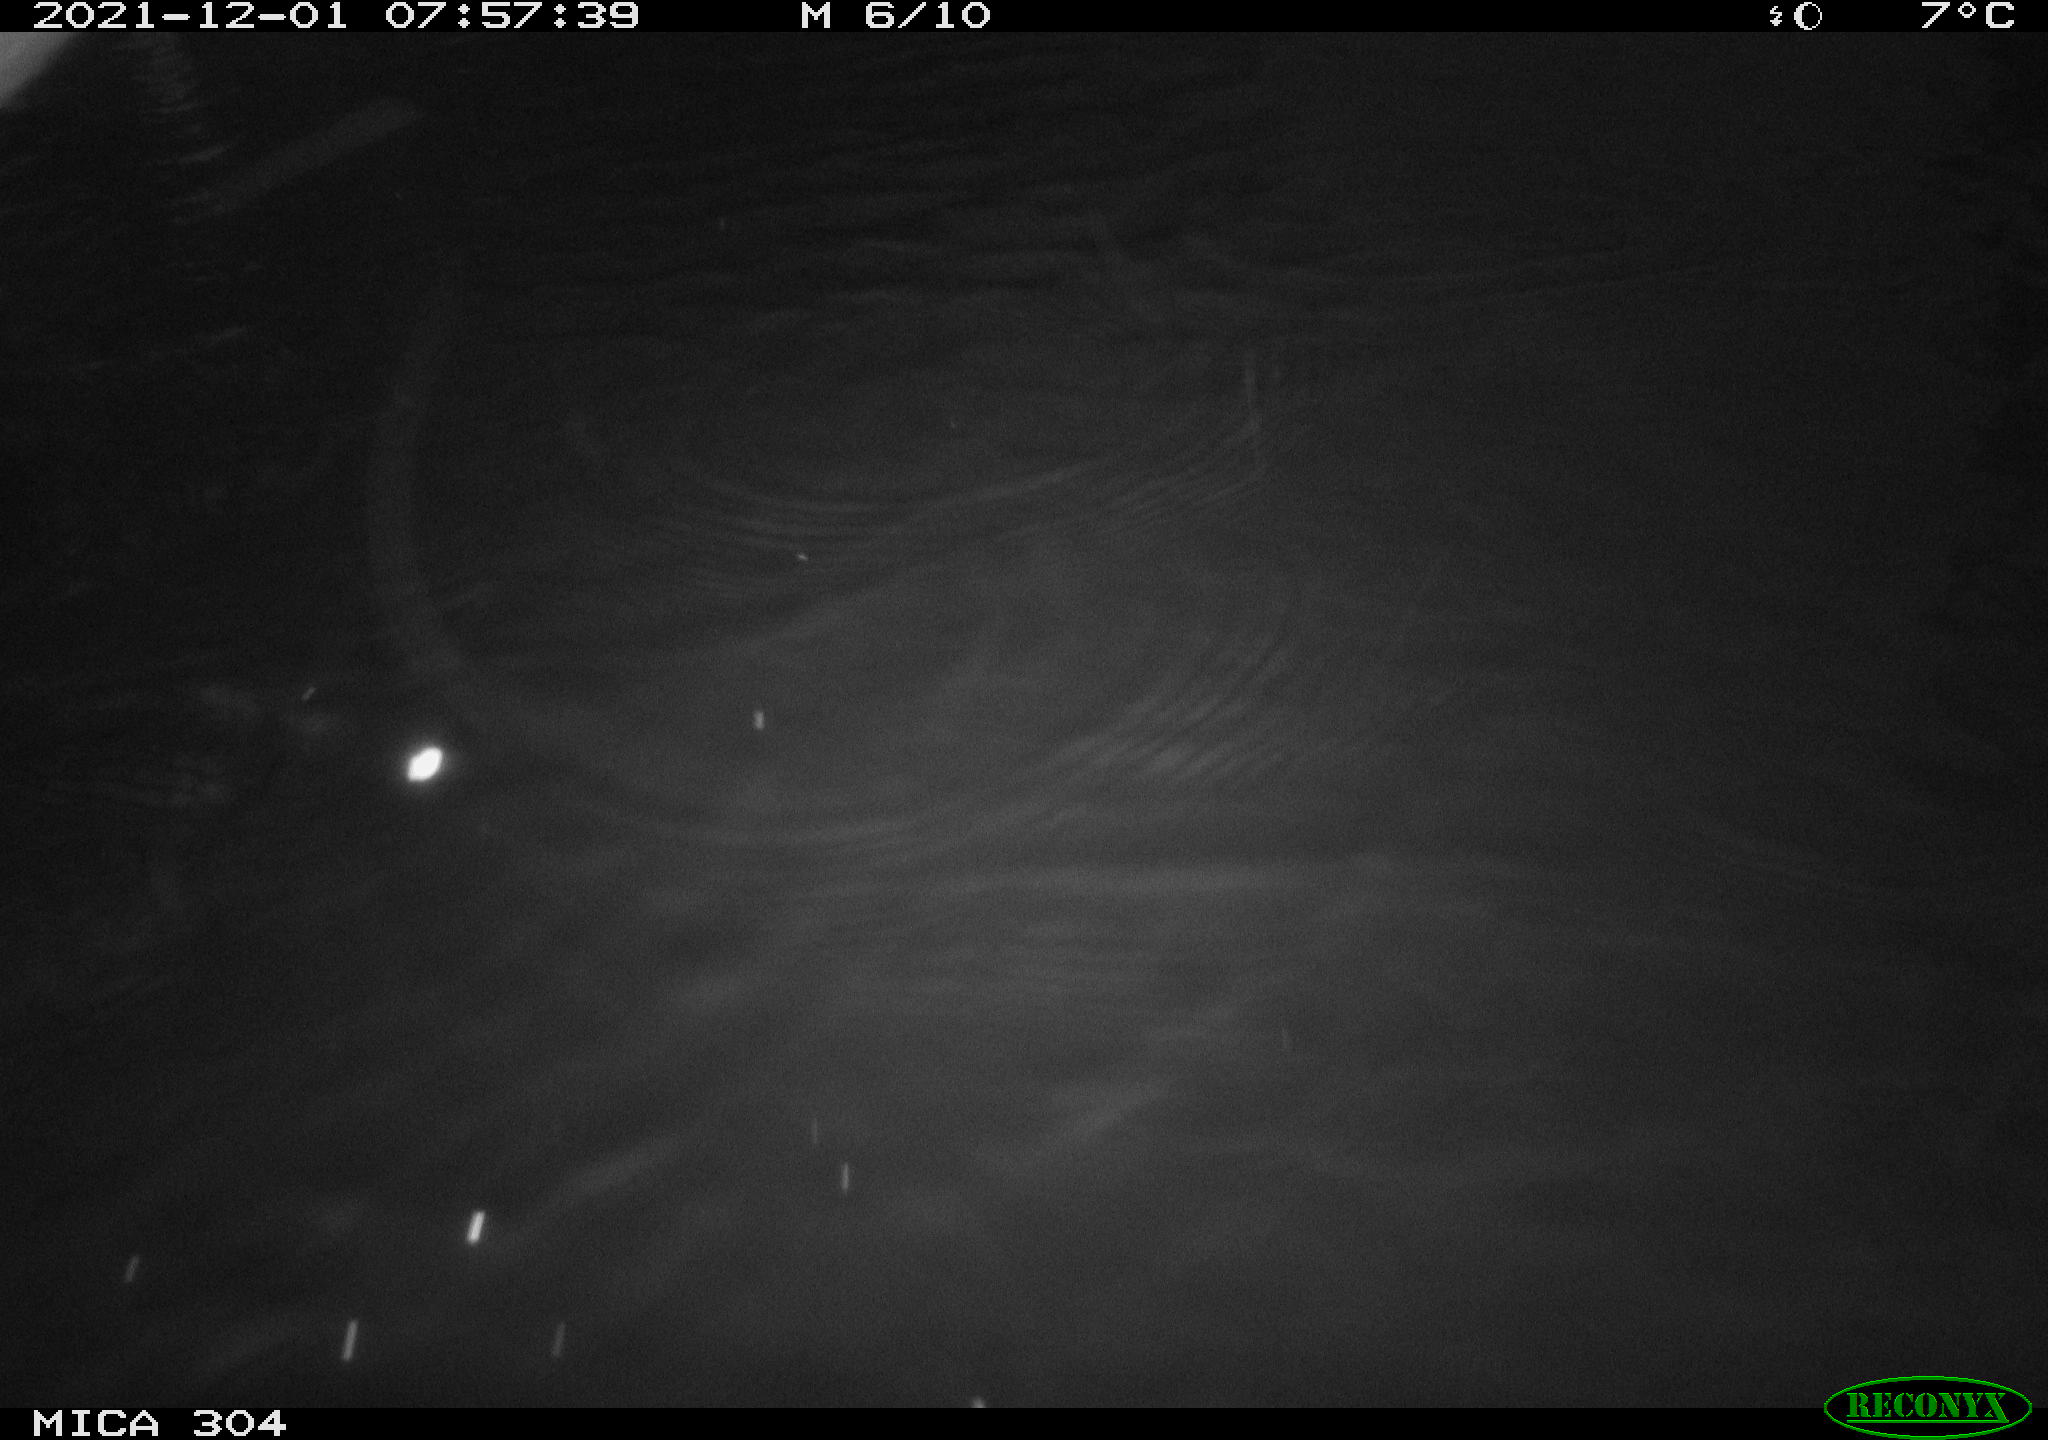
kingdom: Animalia
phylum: Chordata
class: Aves
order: Gruiformes
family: Rallidae
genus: Fulica
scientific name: Fulica atra
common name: Eurasian coot
